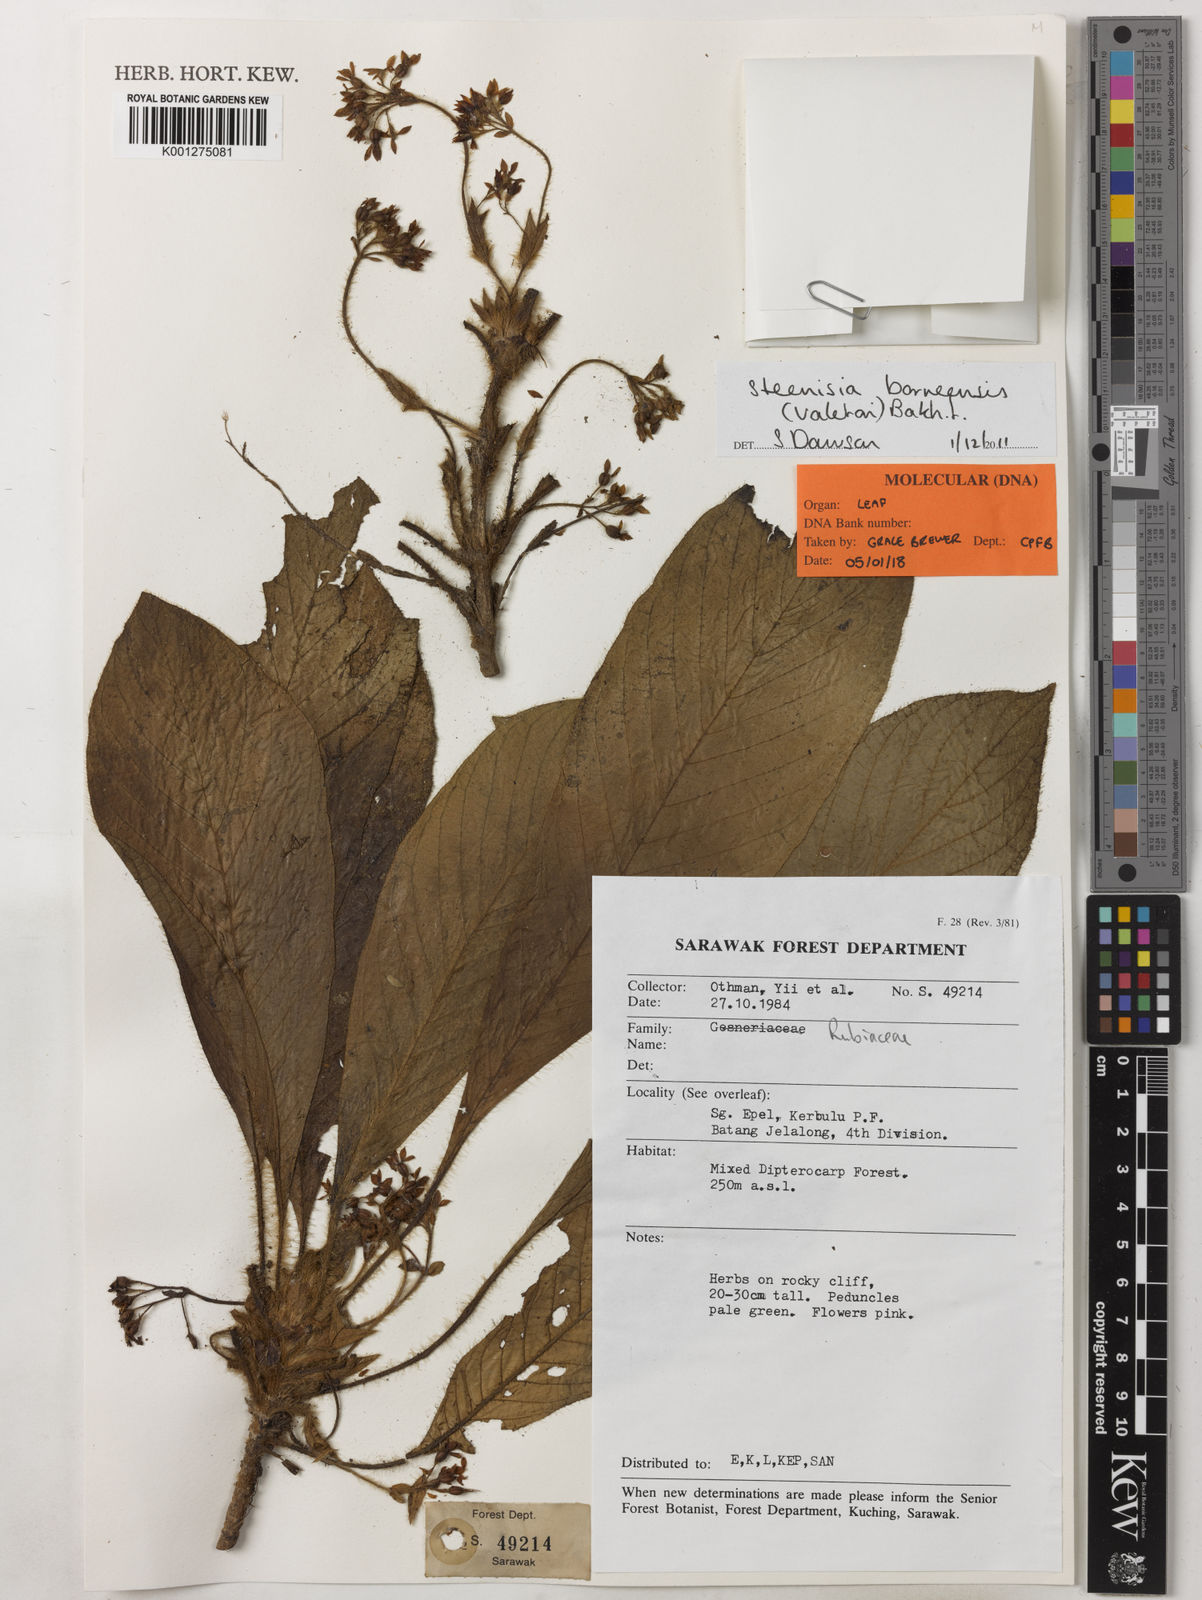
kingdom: Plantae
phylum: Tracheophyta
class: Magnoliopsida
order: Gentianales
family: Rubiaceae
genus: Steenisia
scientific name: Steenisia borneensis
